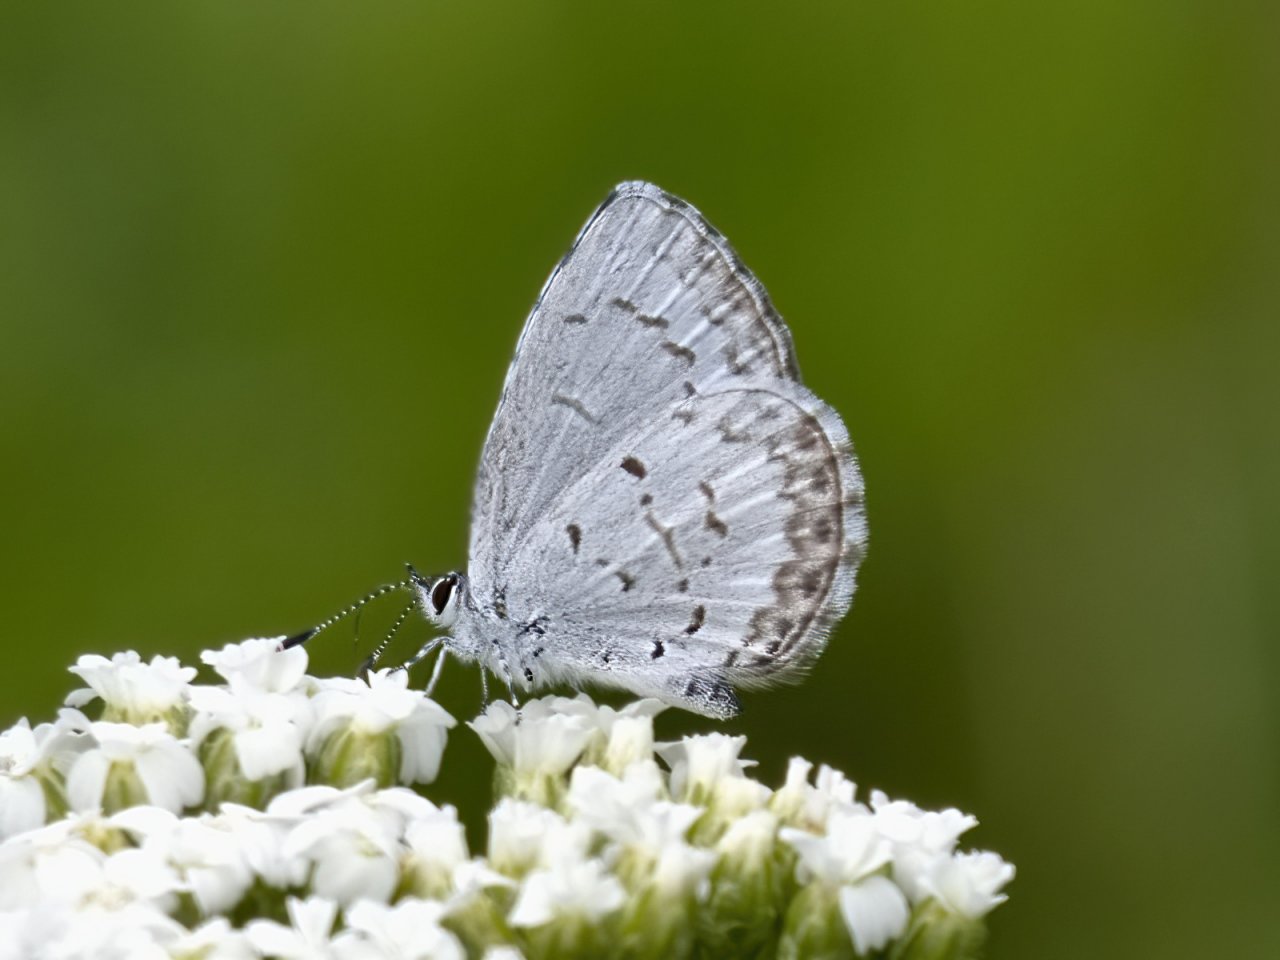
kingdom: Animalia
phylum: Arthropoda
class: Insecta
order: Lepidoptera
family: Lycaenidae
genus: Celastrina
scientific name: Celastrina lucia
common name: Northern Spring Azure
